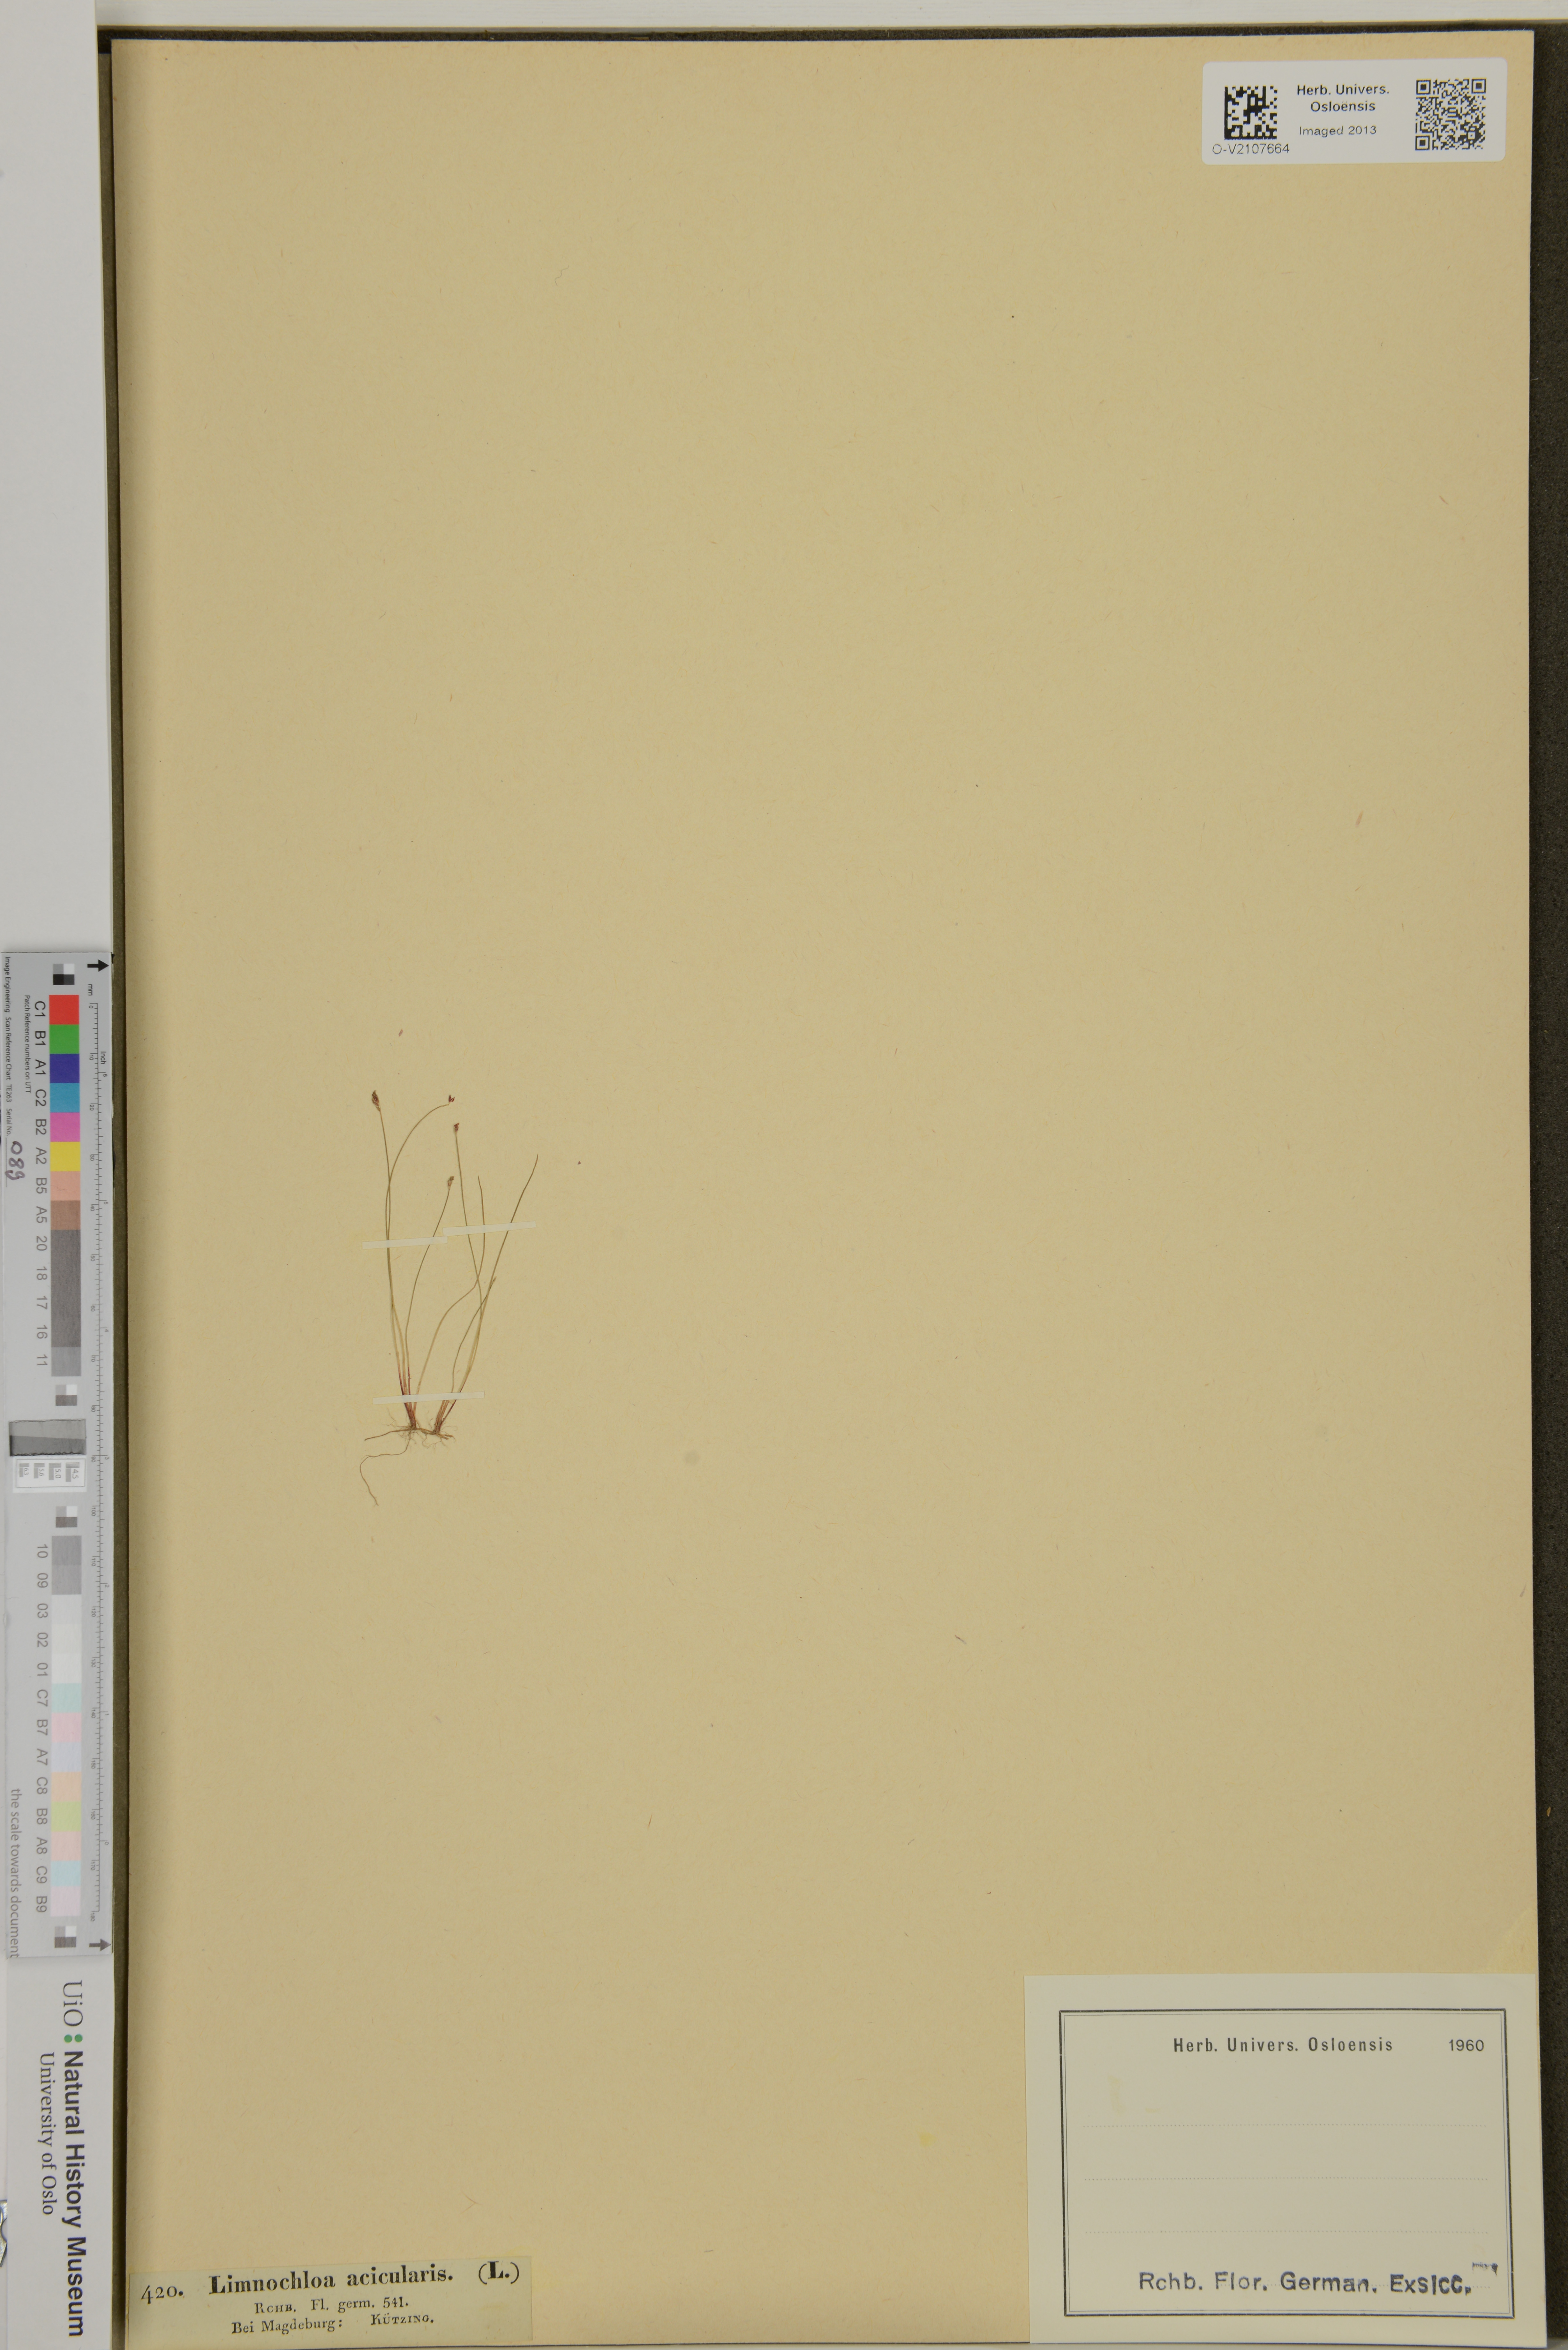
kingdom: Plantae
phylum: Tracheophyta
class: Liliopsida
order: Poales
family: Cyperaceae
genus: Eleocharis
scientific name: Eleocharis acicularis
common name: Needle spike-rush
